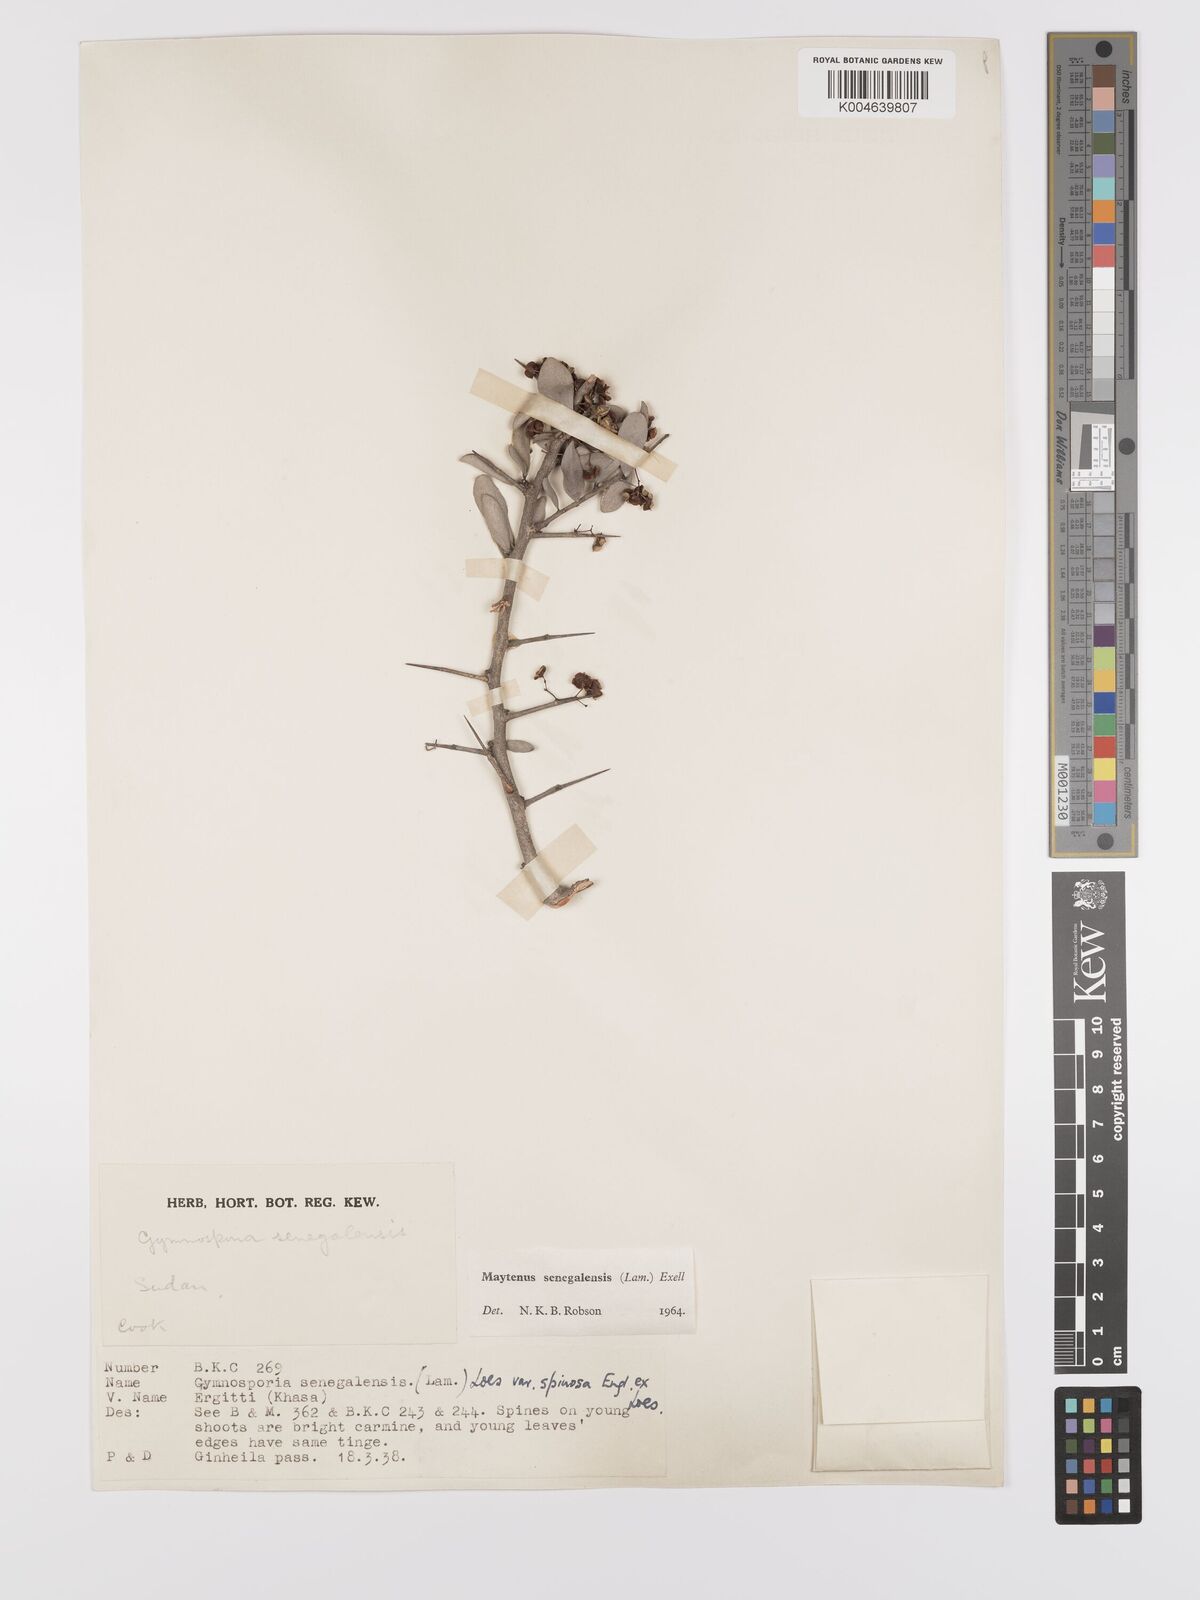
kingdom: Plantae
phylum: Tracheophyta
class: Magnoliopsida
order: Celastrales
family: Celastraceae
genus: Gymnosporia
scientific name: Gymnosporia senegalensis
